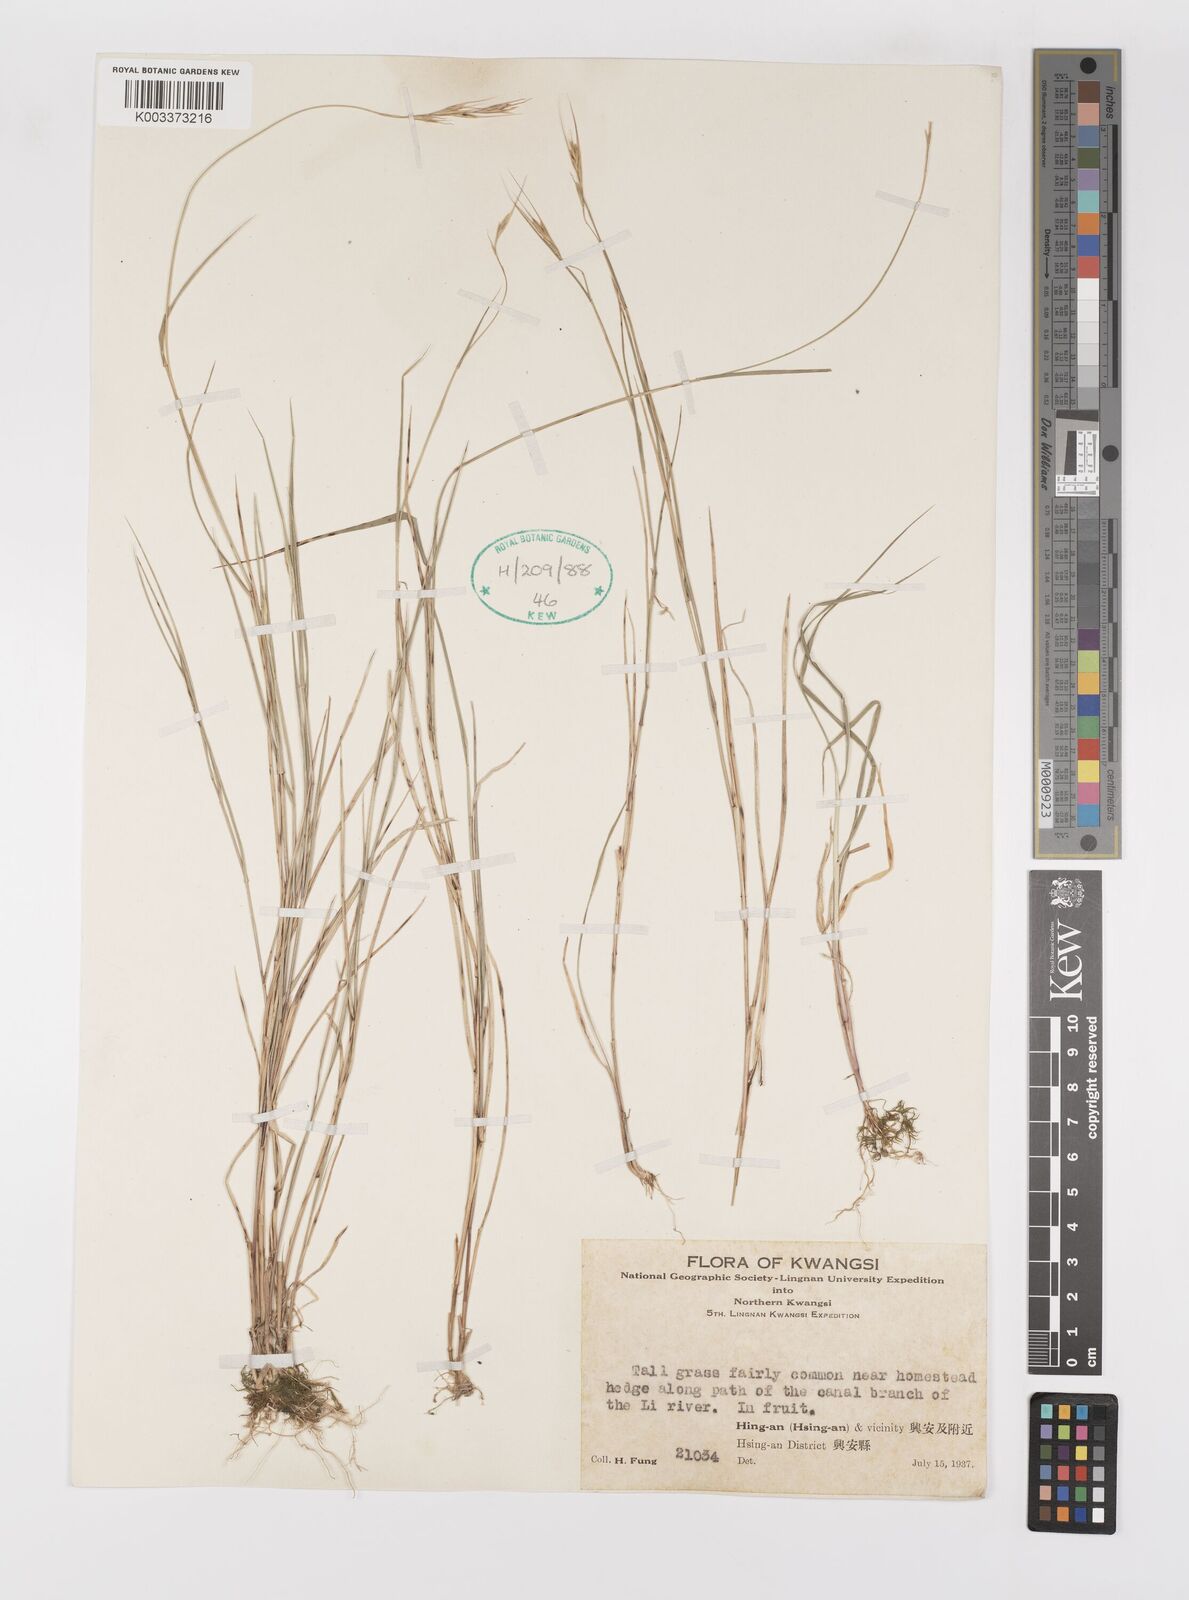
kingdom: Plantae
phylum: Tracheophyta
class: Liliopsida
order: Poales
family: Poaceae
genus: Elymus
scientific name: Elymus
